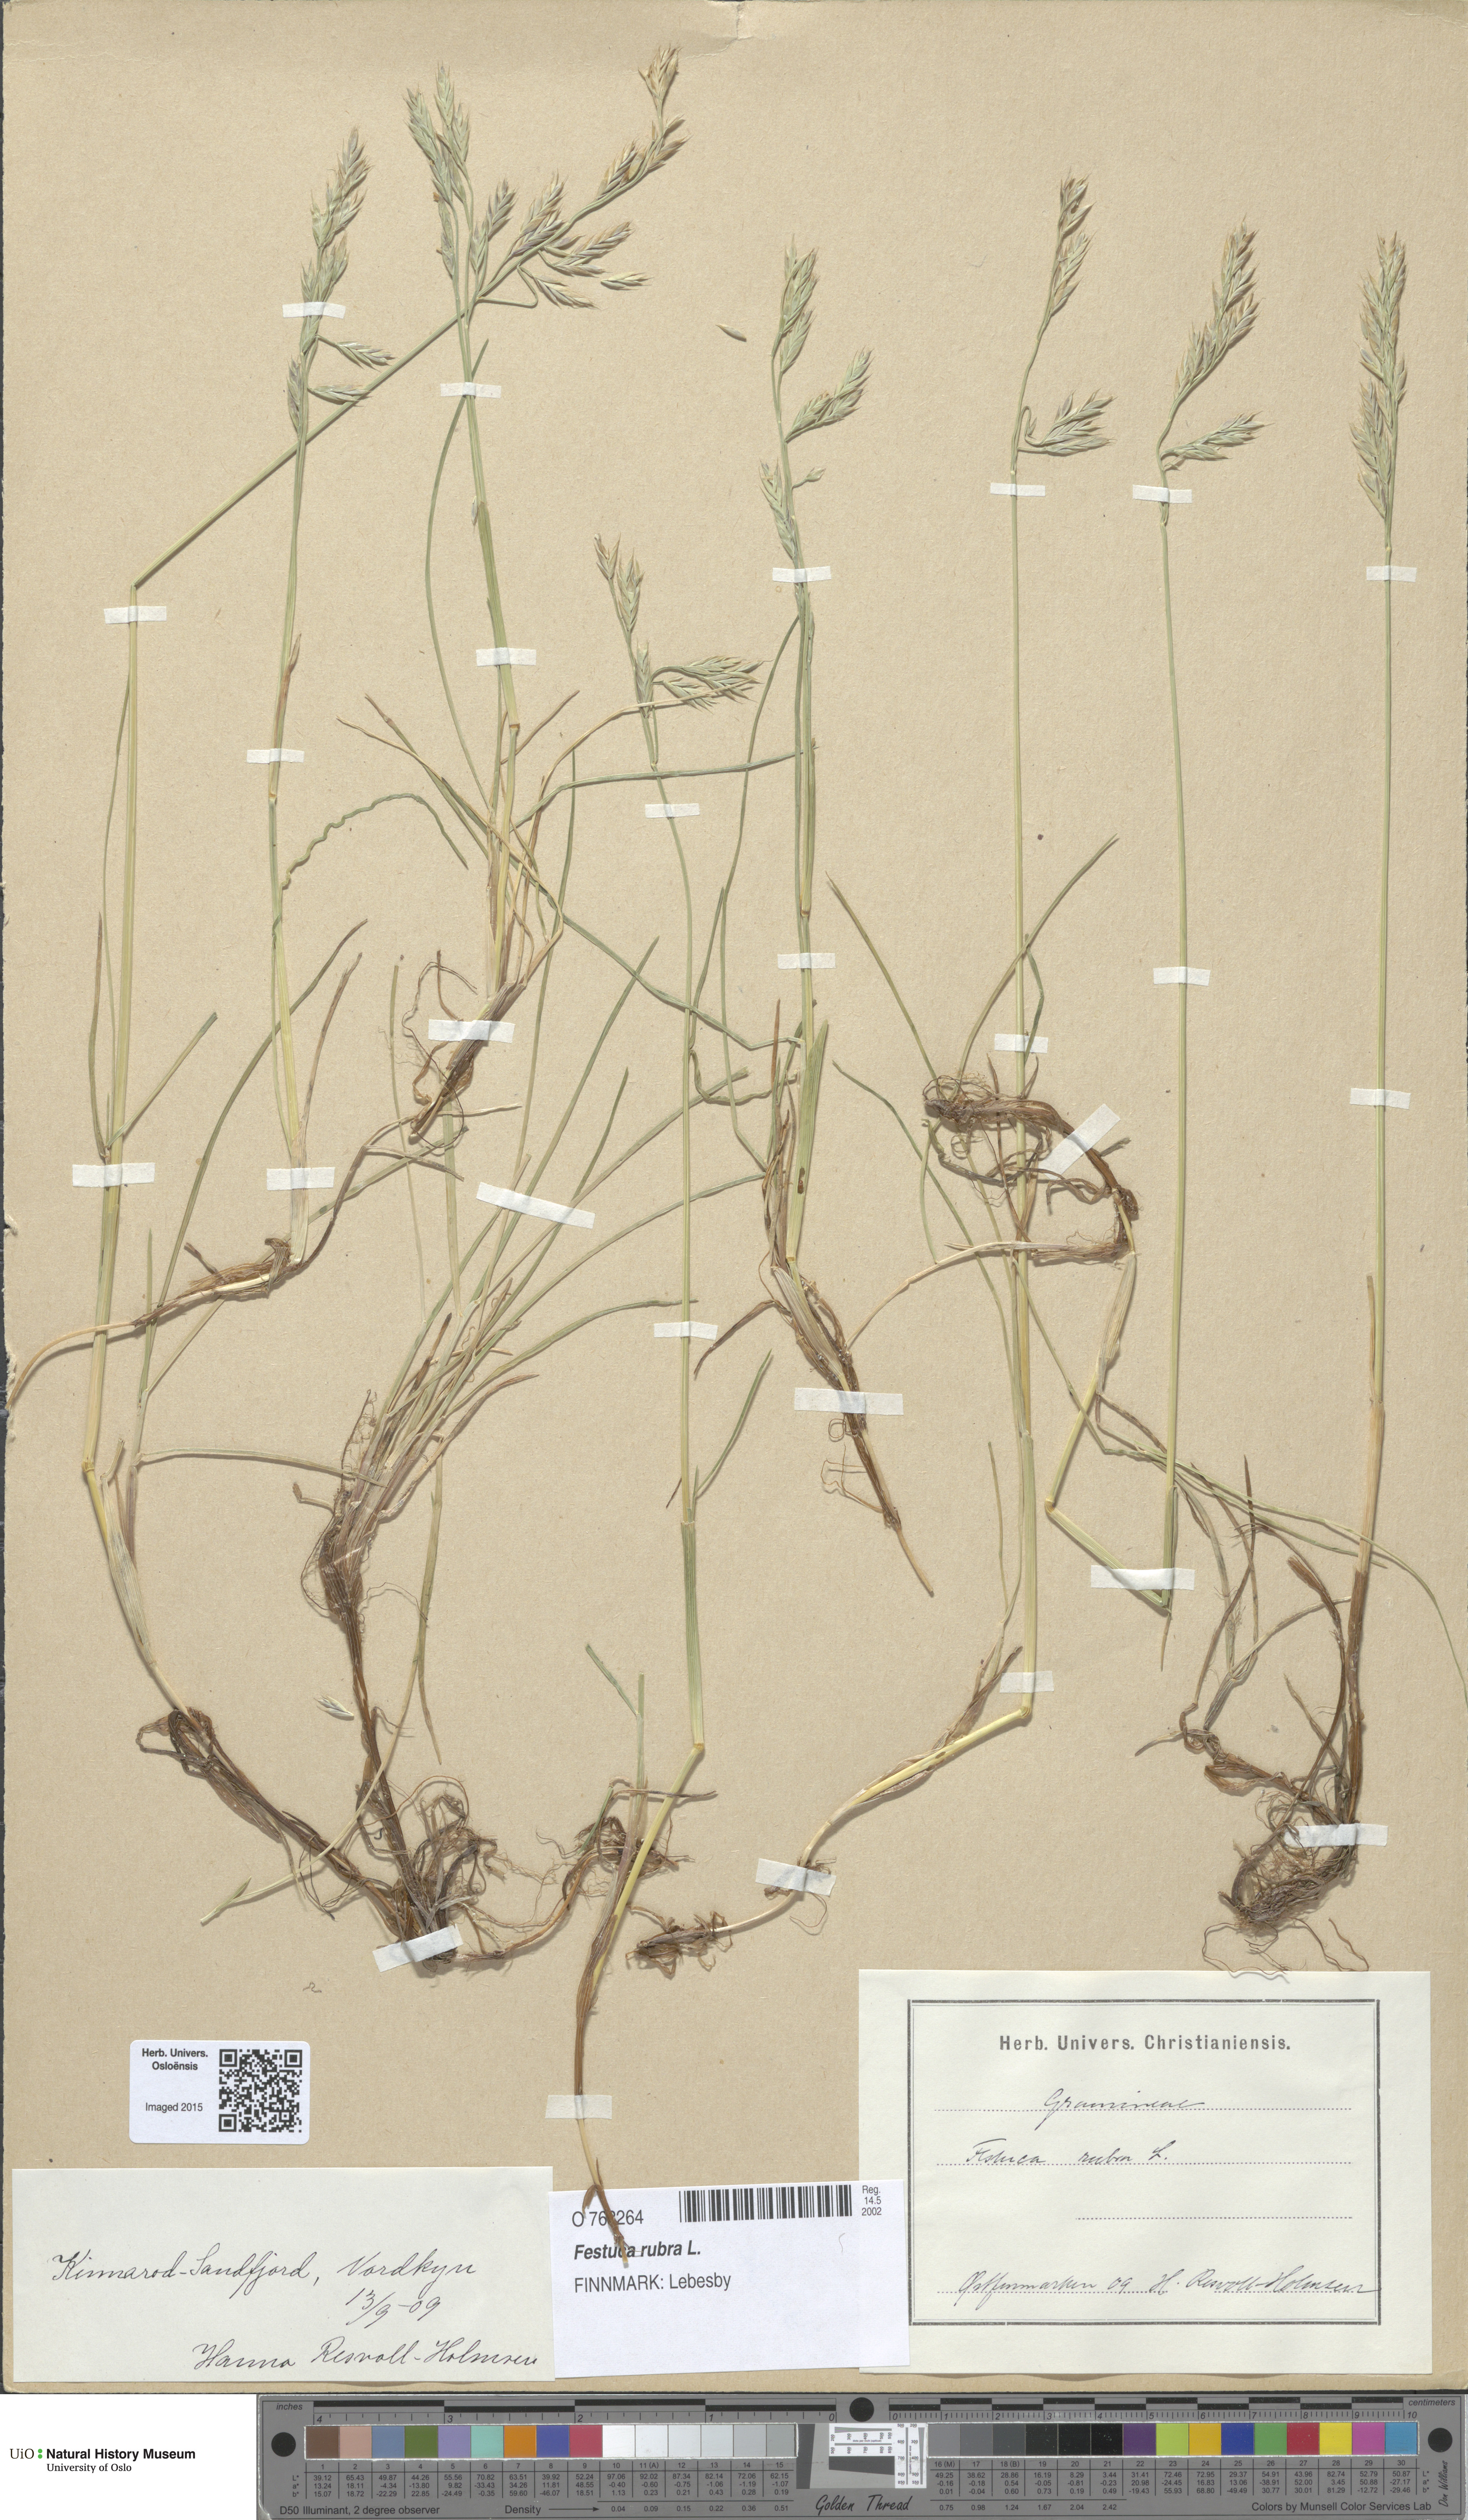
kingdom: Plantae
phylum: Tracheophyta
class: Liliopsida
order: Poales
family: Poaceae
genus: Festuca
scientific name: Festuca rubra
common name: Red fescue
